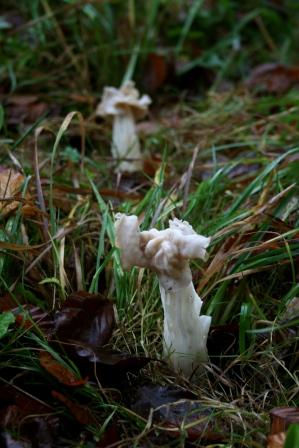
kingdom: Fungi
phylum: Ascomycota
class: Pezizomycetes
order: Pezizales
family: Helvellaceae
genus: Helvella
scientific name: Helvella crispa
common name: kruset foldhat
